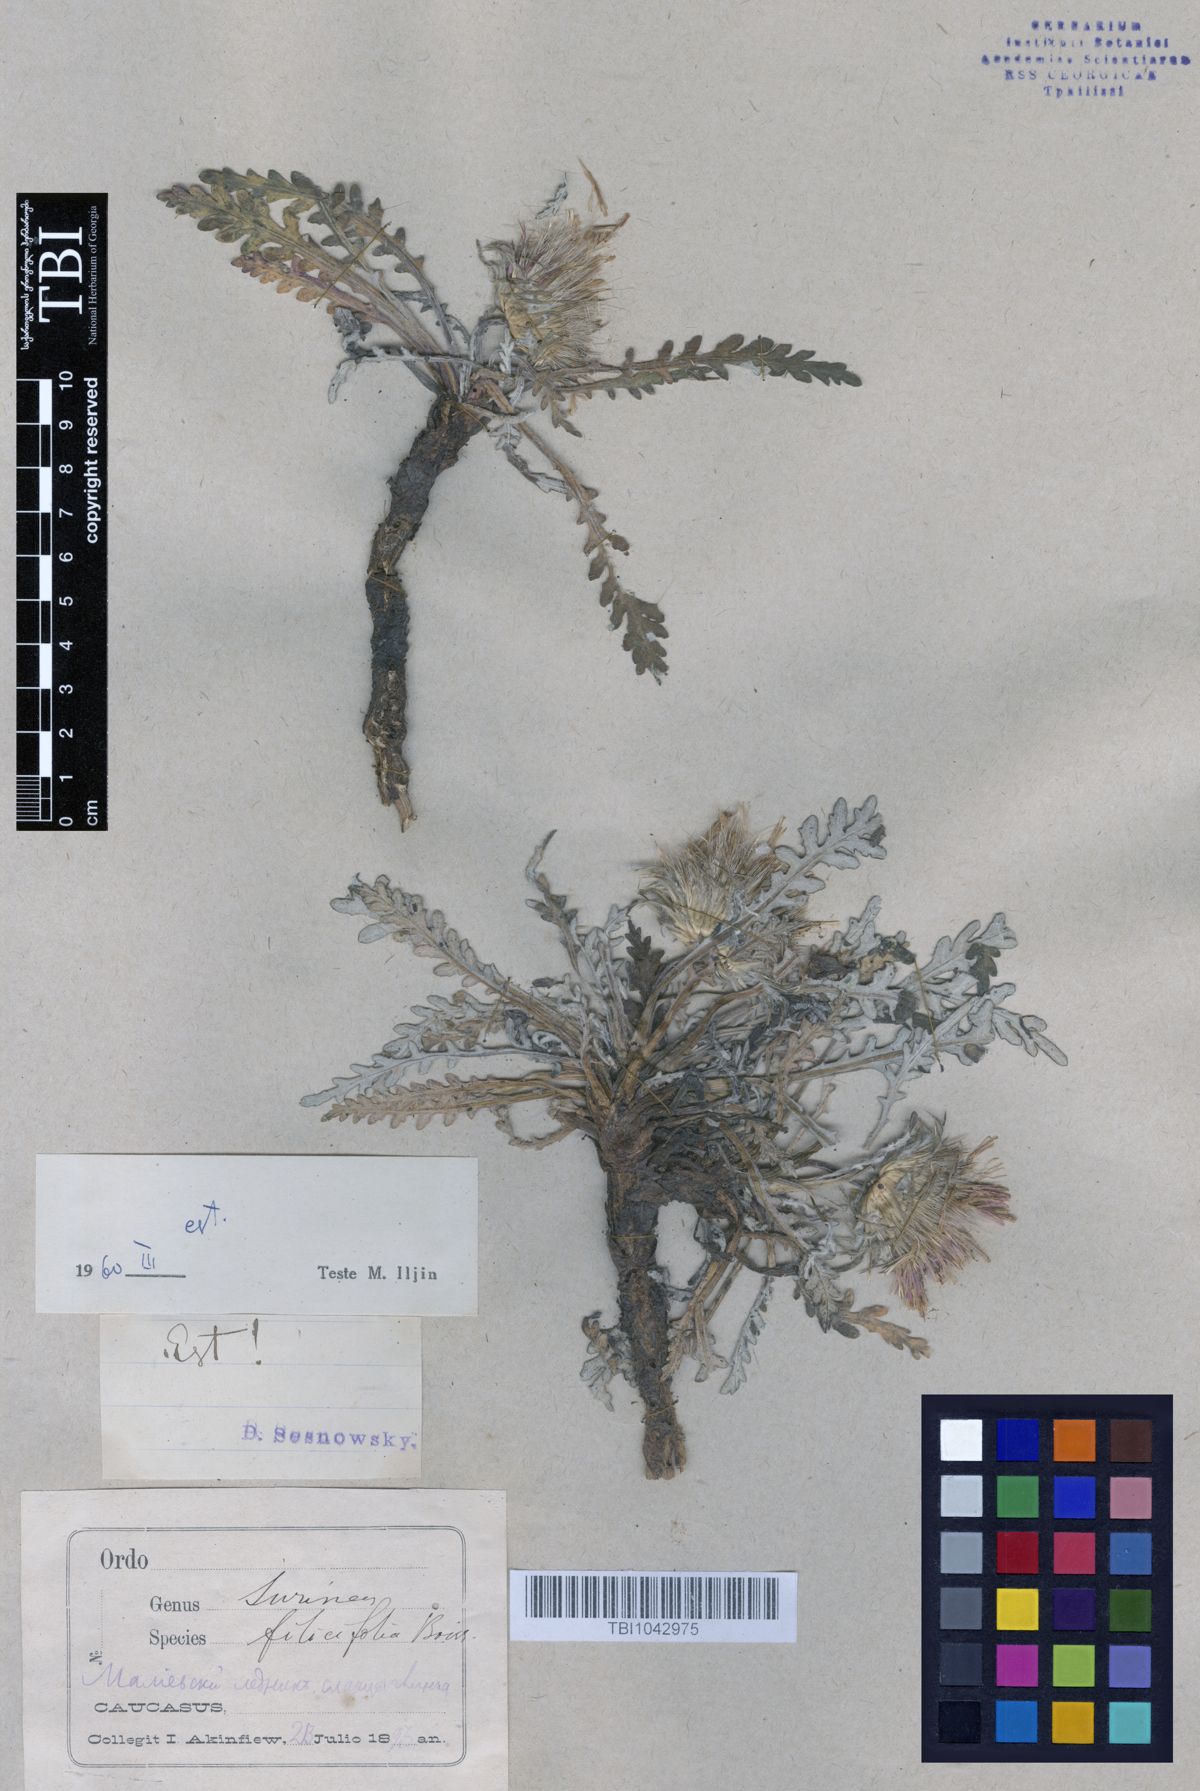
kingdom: Plantae
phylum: Tracheophyta
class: Magnoliopsida
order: Asterales
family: Asteraceae
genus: Jurinea
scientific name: Jurinea filicifolia
